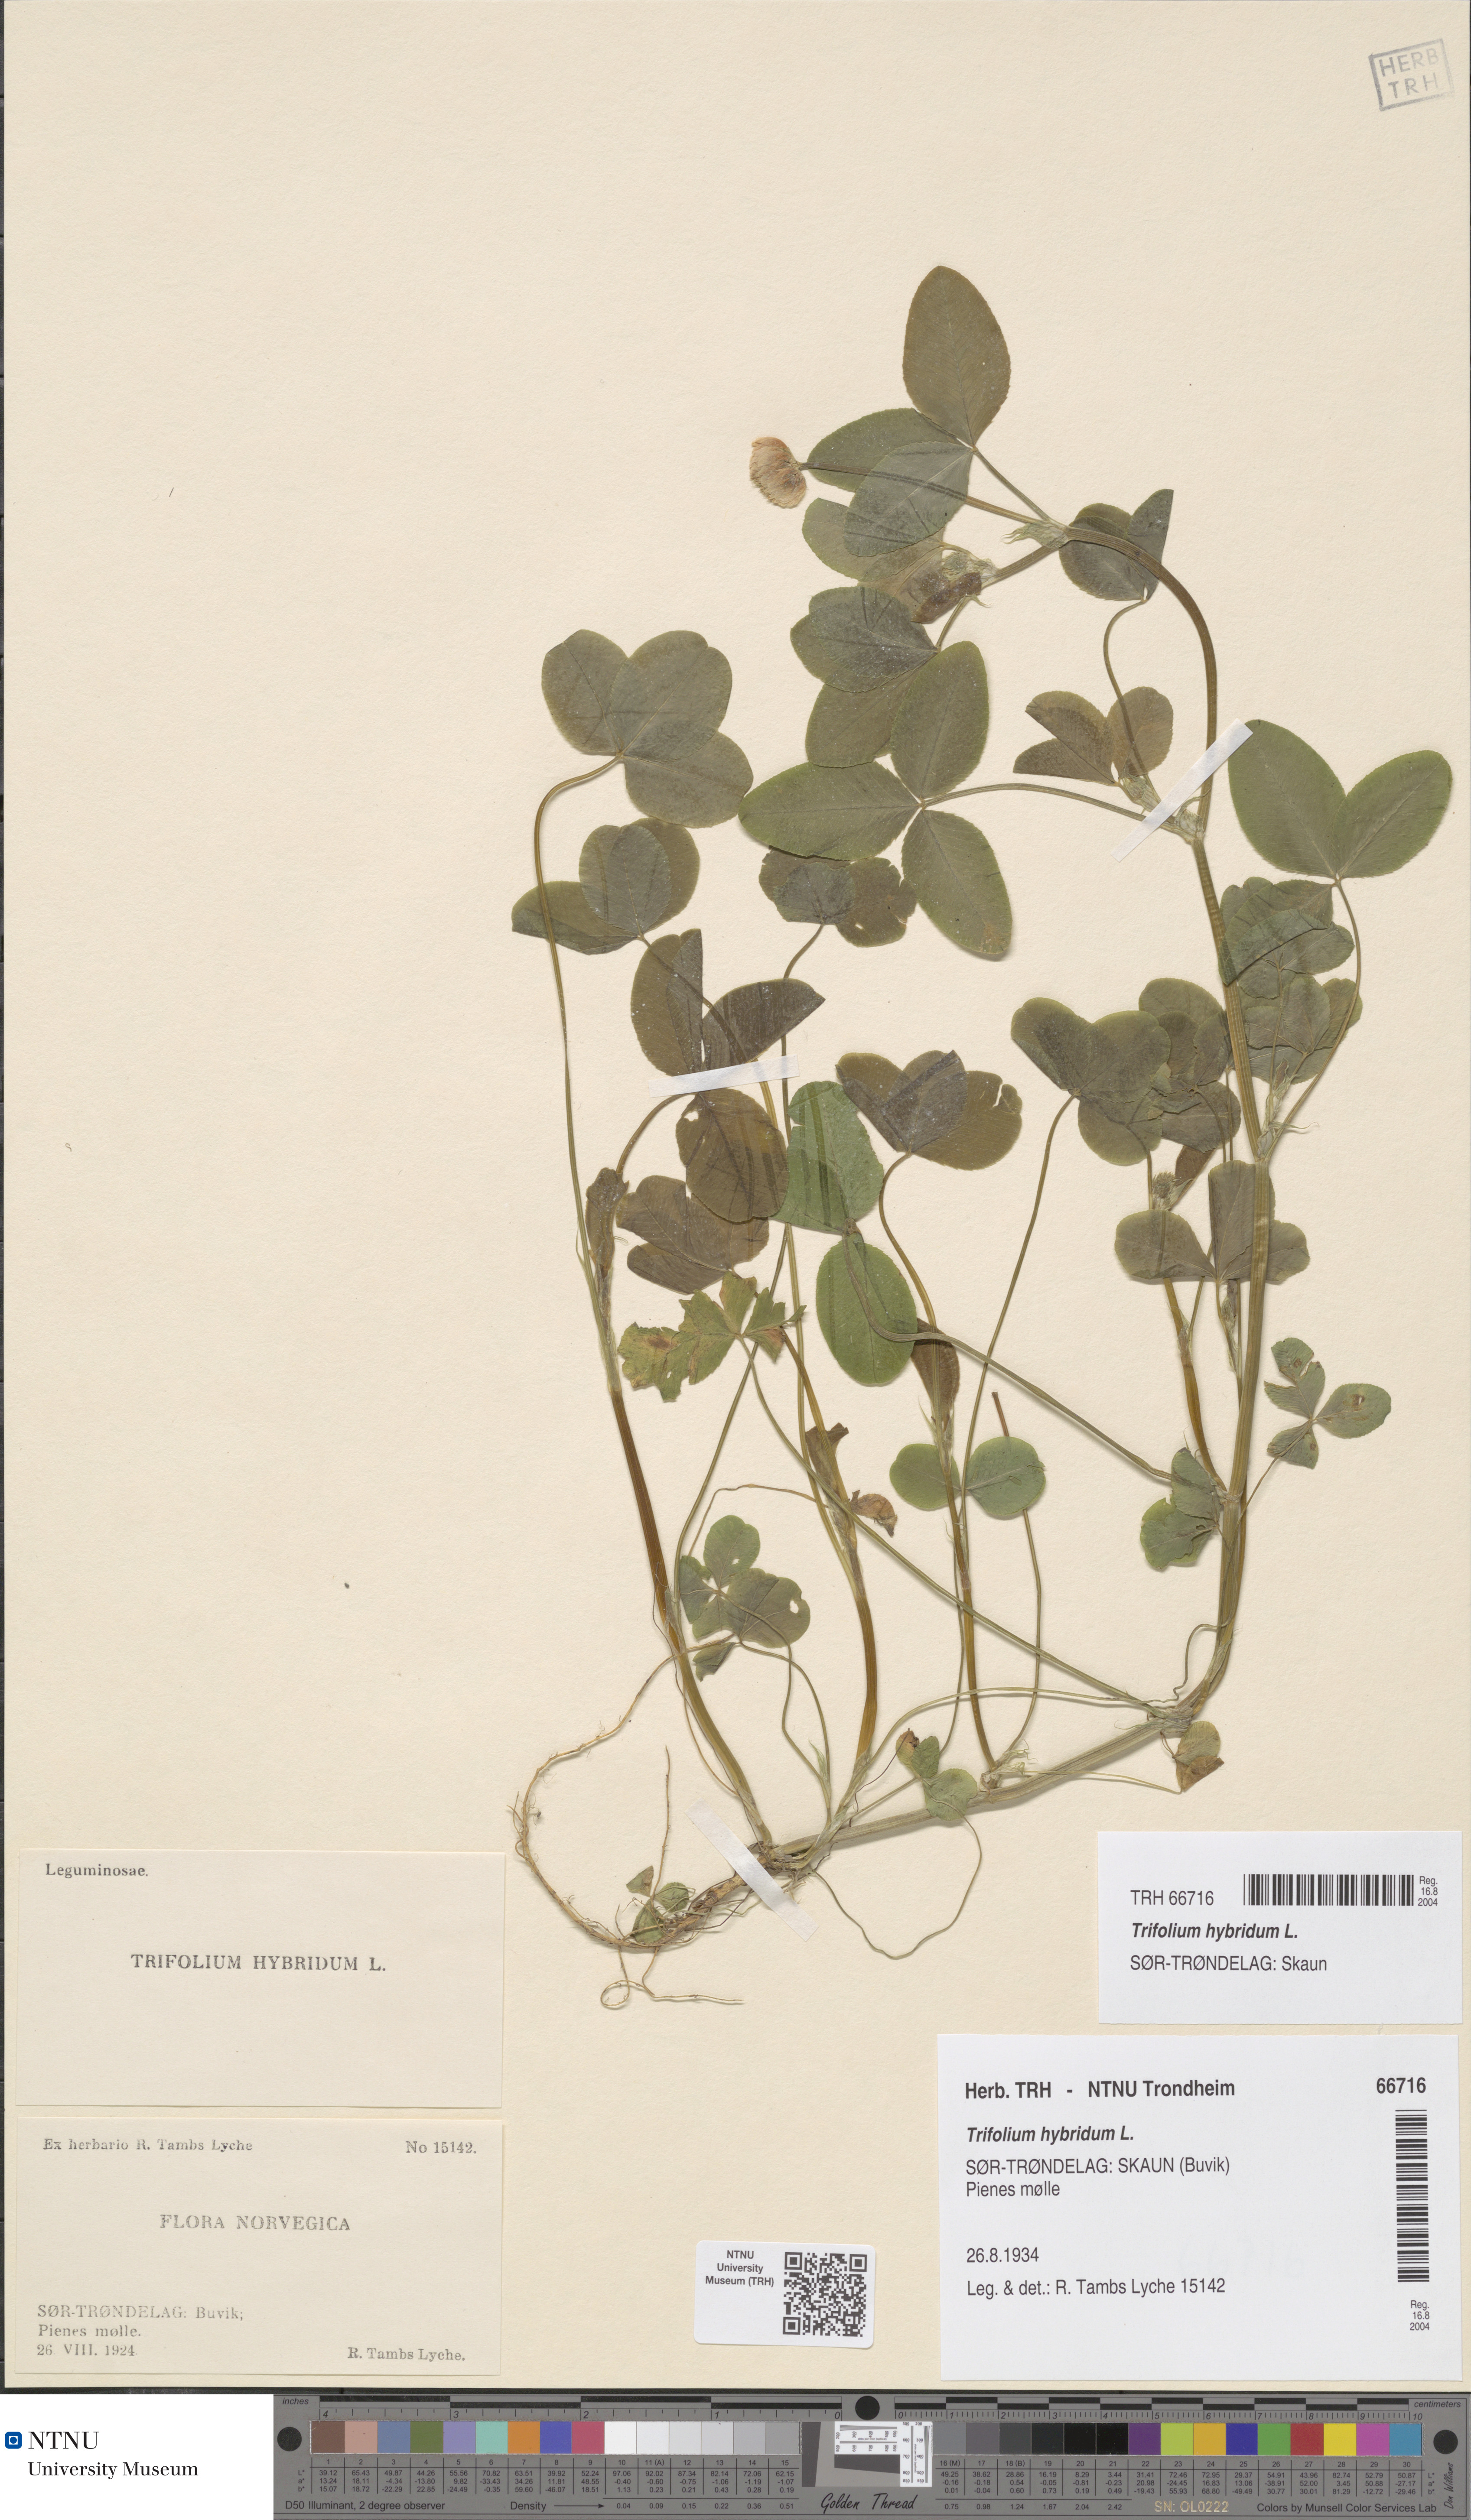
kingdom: Plantae
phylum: Tracheophyta
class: Magnoliopsida
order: Fabales
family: Fabaceae
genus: Trifolium
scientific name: Trifolium hybridum
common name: Alsike clover
